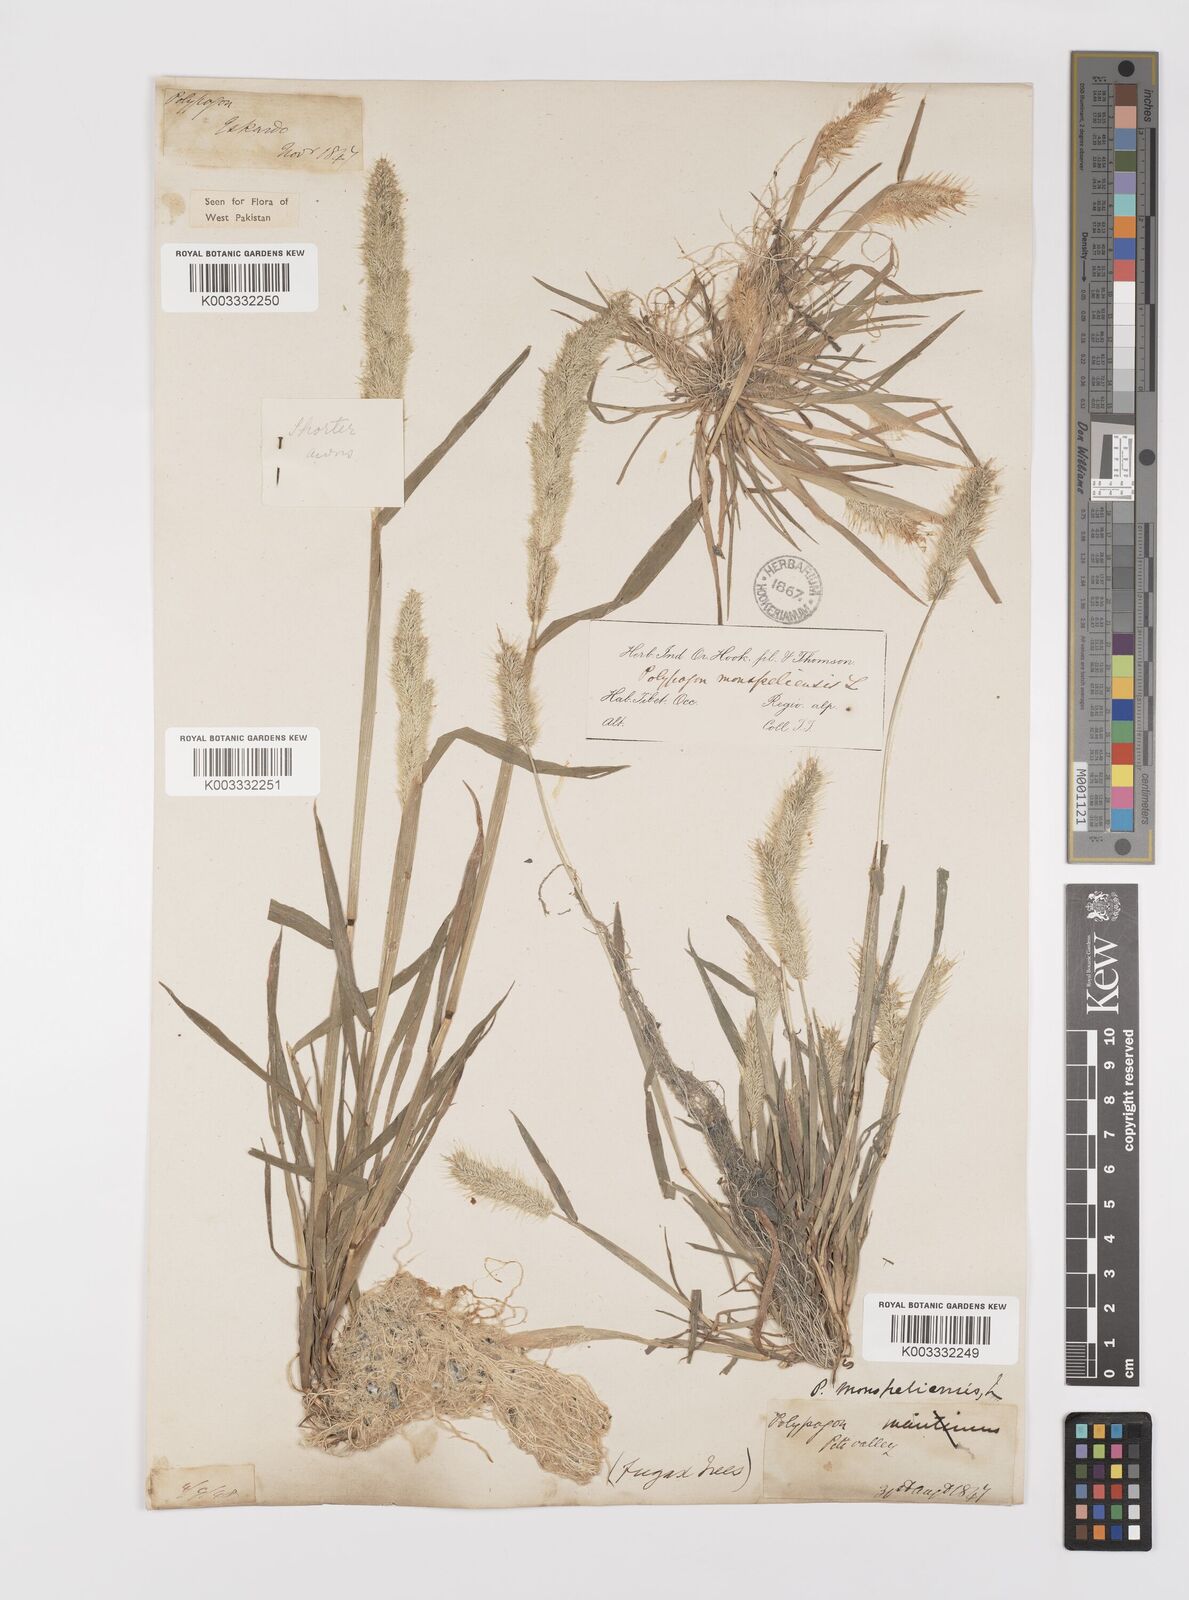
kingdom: Plantae
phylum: Tracheophyta
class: Liliopsida
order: Poales
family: Poaceae
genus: Polypogon
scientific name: Polypogon monspeliensis
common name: Annual rabbitsfoot grass
